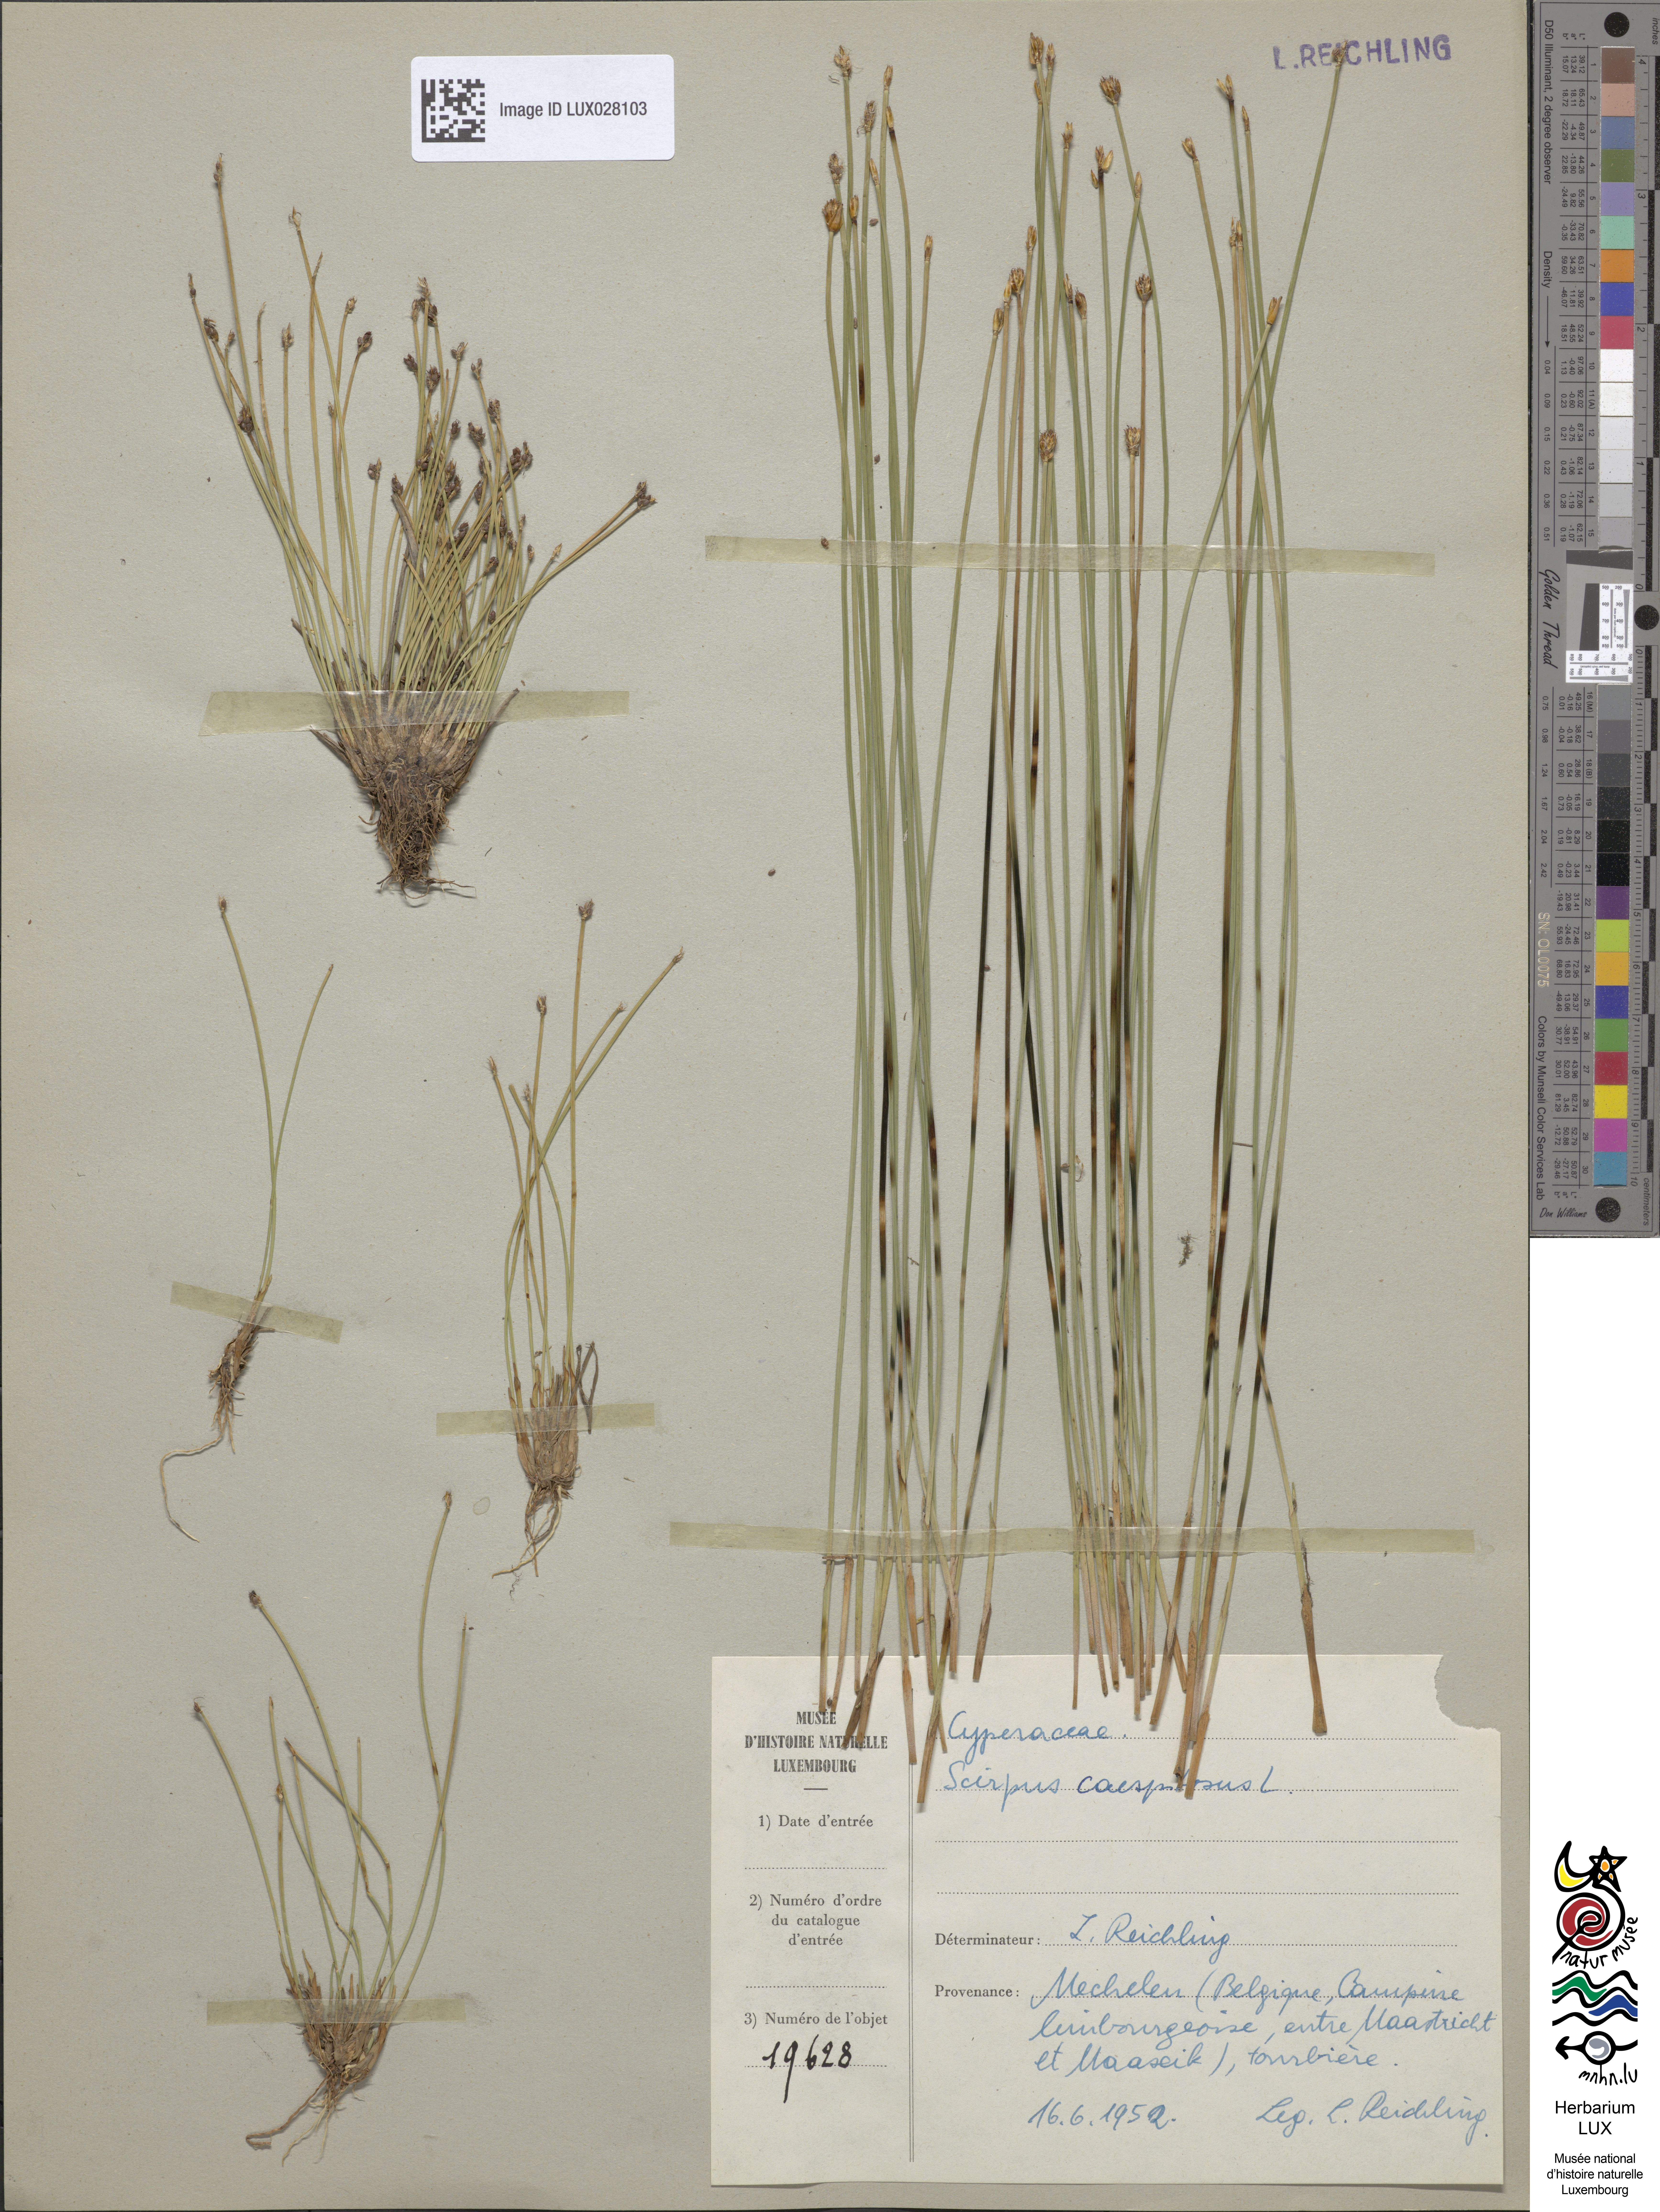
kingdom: Plantae
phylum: Tracheophyta
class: Liliopsida
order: Poales
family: Cyperaceae
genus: Trichophorum
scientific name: Trichophorum cespitosum
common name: Cespitose bulrush
